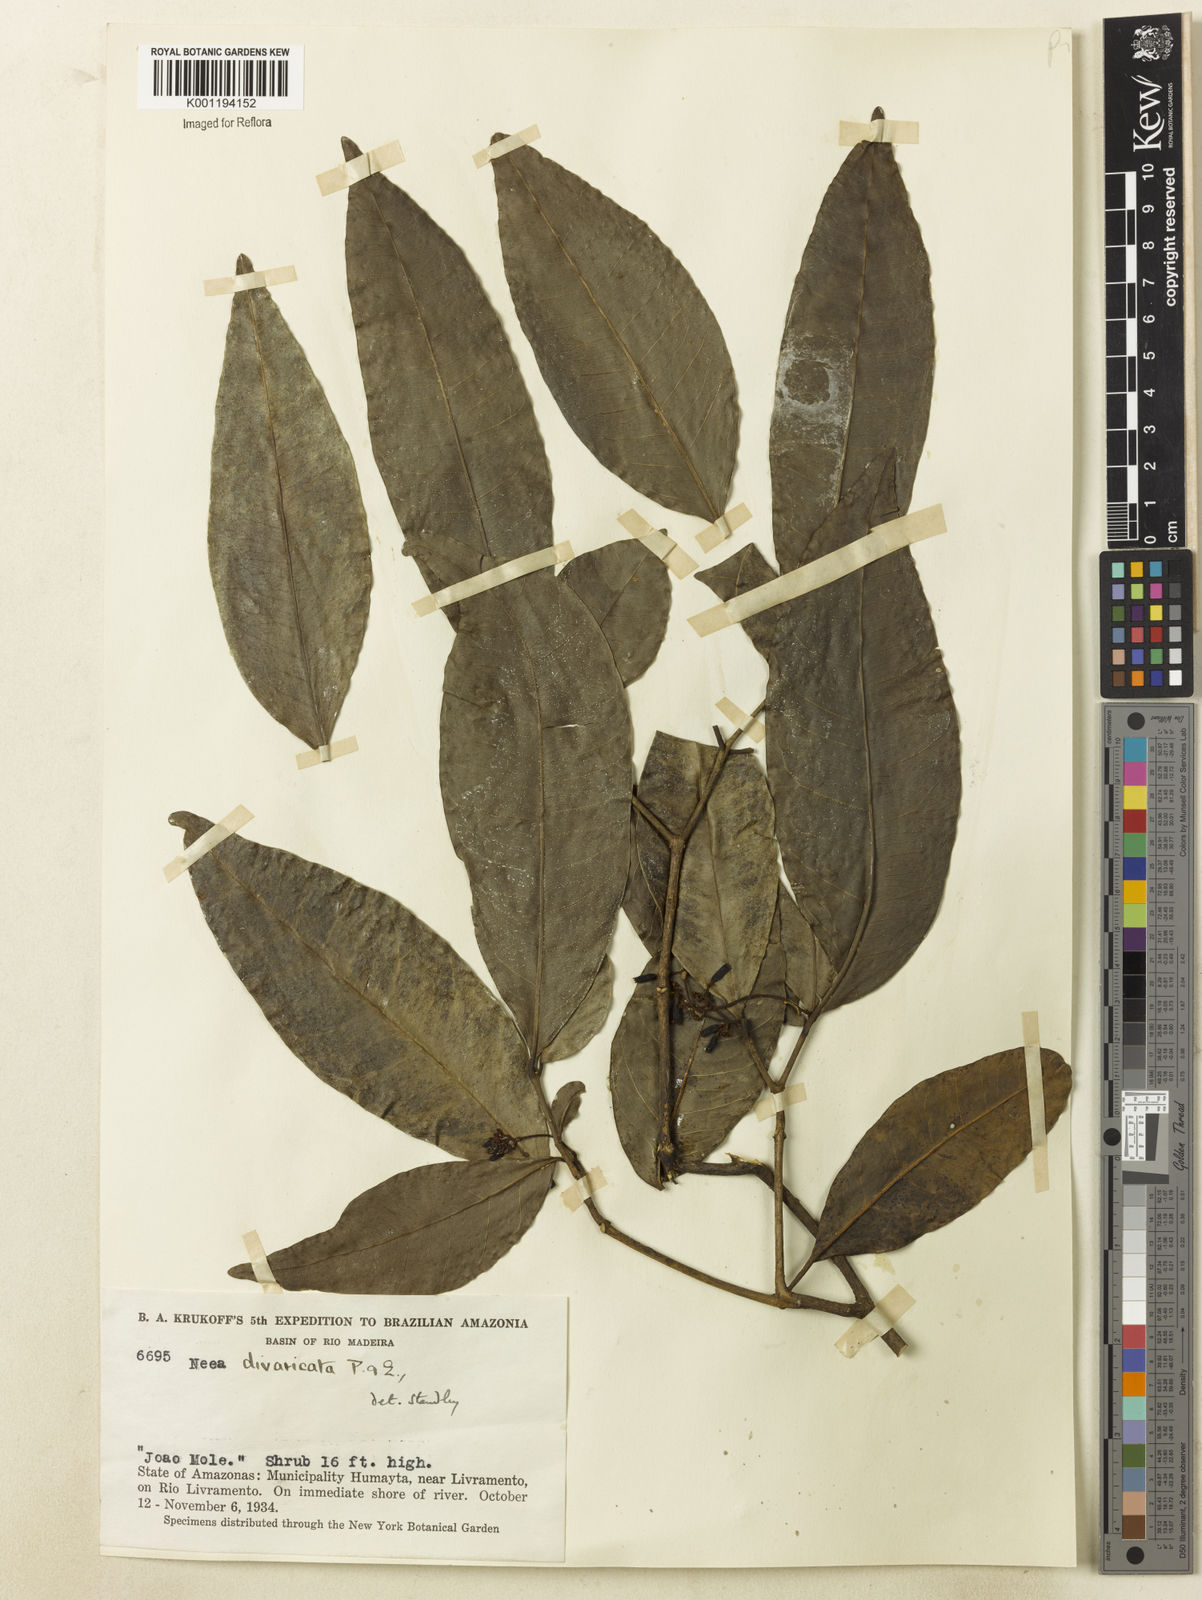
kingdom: Plantae
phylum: Tracheophyta
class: Magnoliopsida
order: Caryophyllales
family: Nyctaginaceae
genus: Neea
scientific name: Neea divaricata
